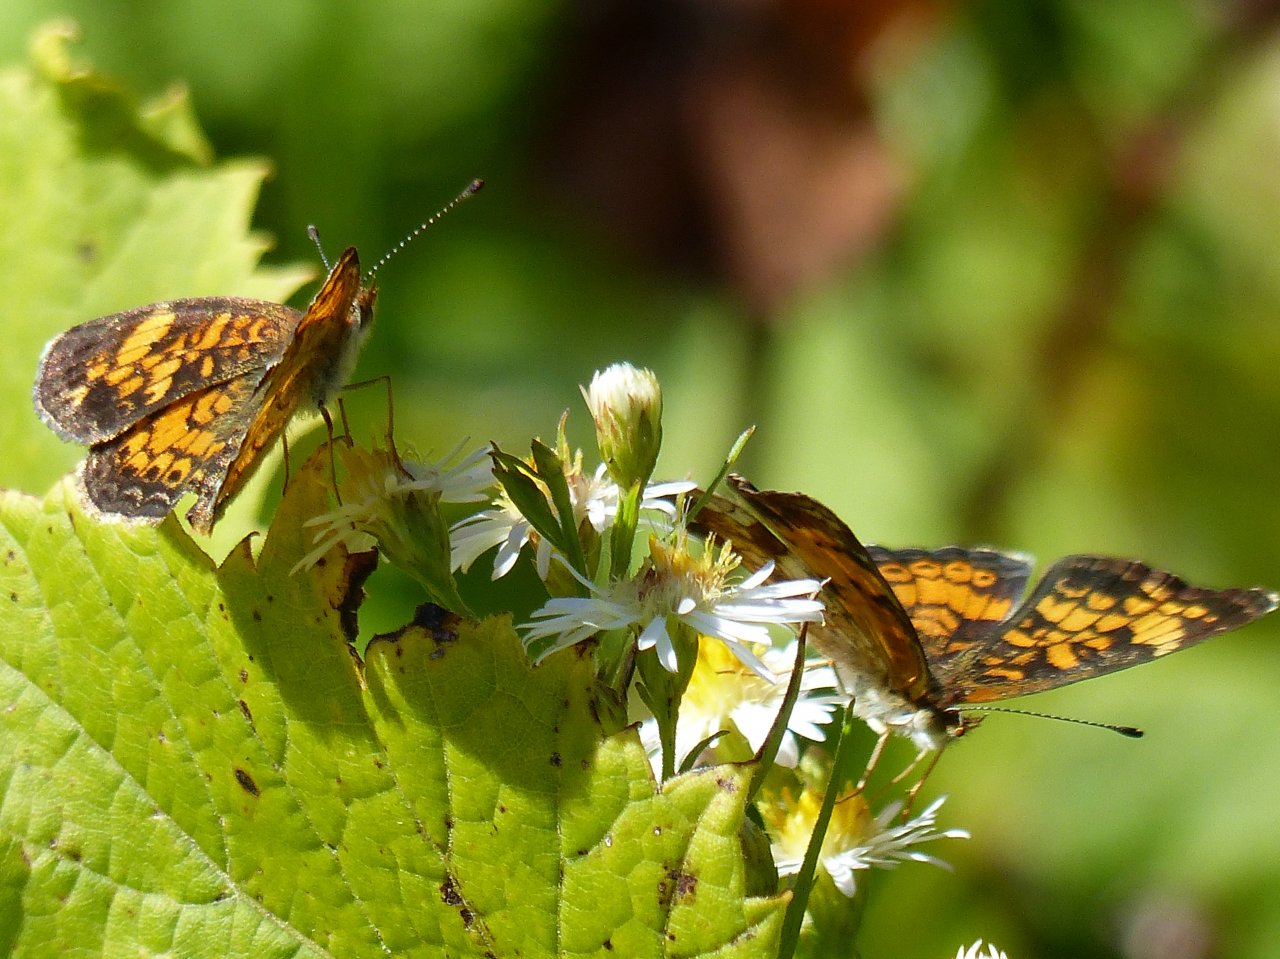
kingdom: Animalia
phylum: Arthropoda
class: Insecta
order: Lepidoptera
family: Nymphalidae
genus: Phyciodes
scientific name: Phyciodes tharos
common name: Pearl Crescent
